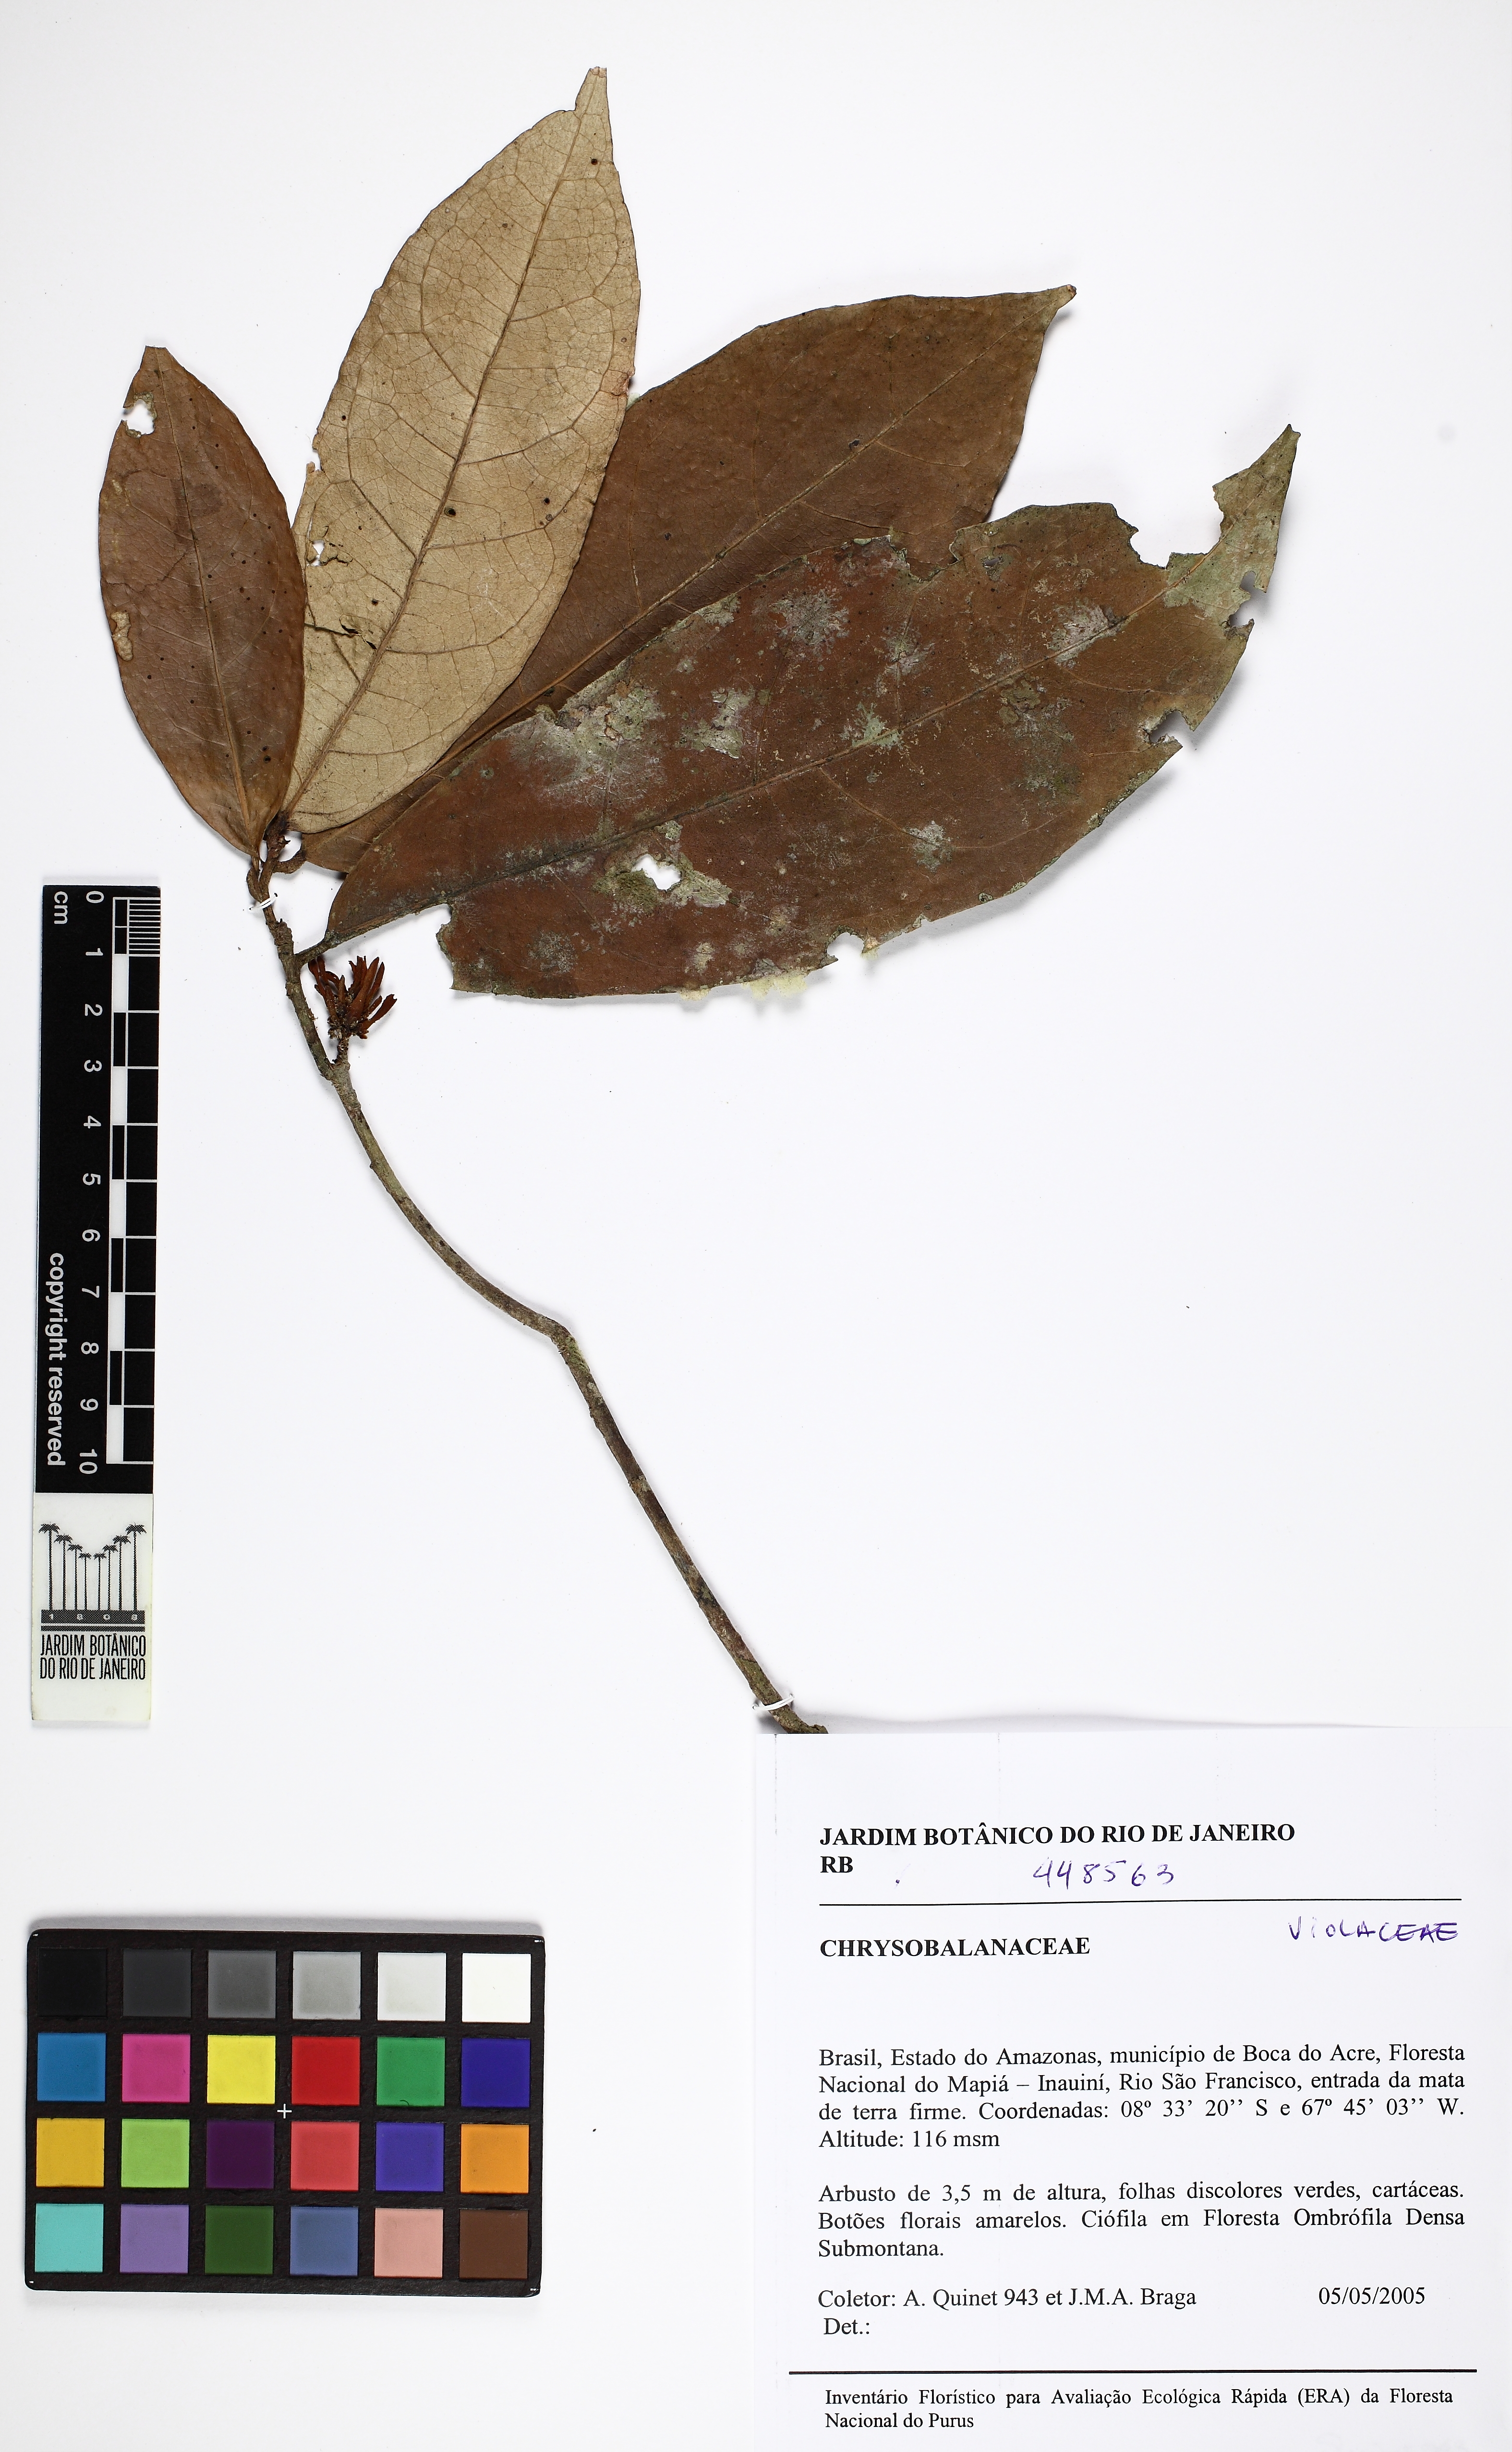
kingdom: Plantae
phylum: Tracheophyta
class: Magnoliopsida
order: Malpighiales
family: Violaceae
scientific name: Violaceae
